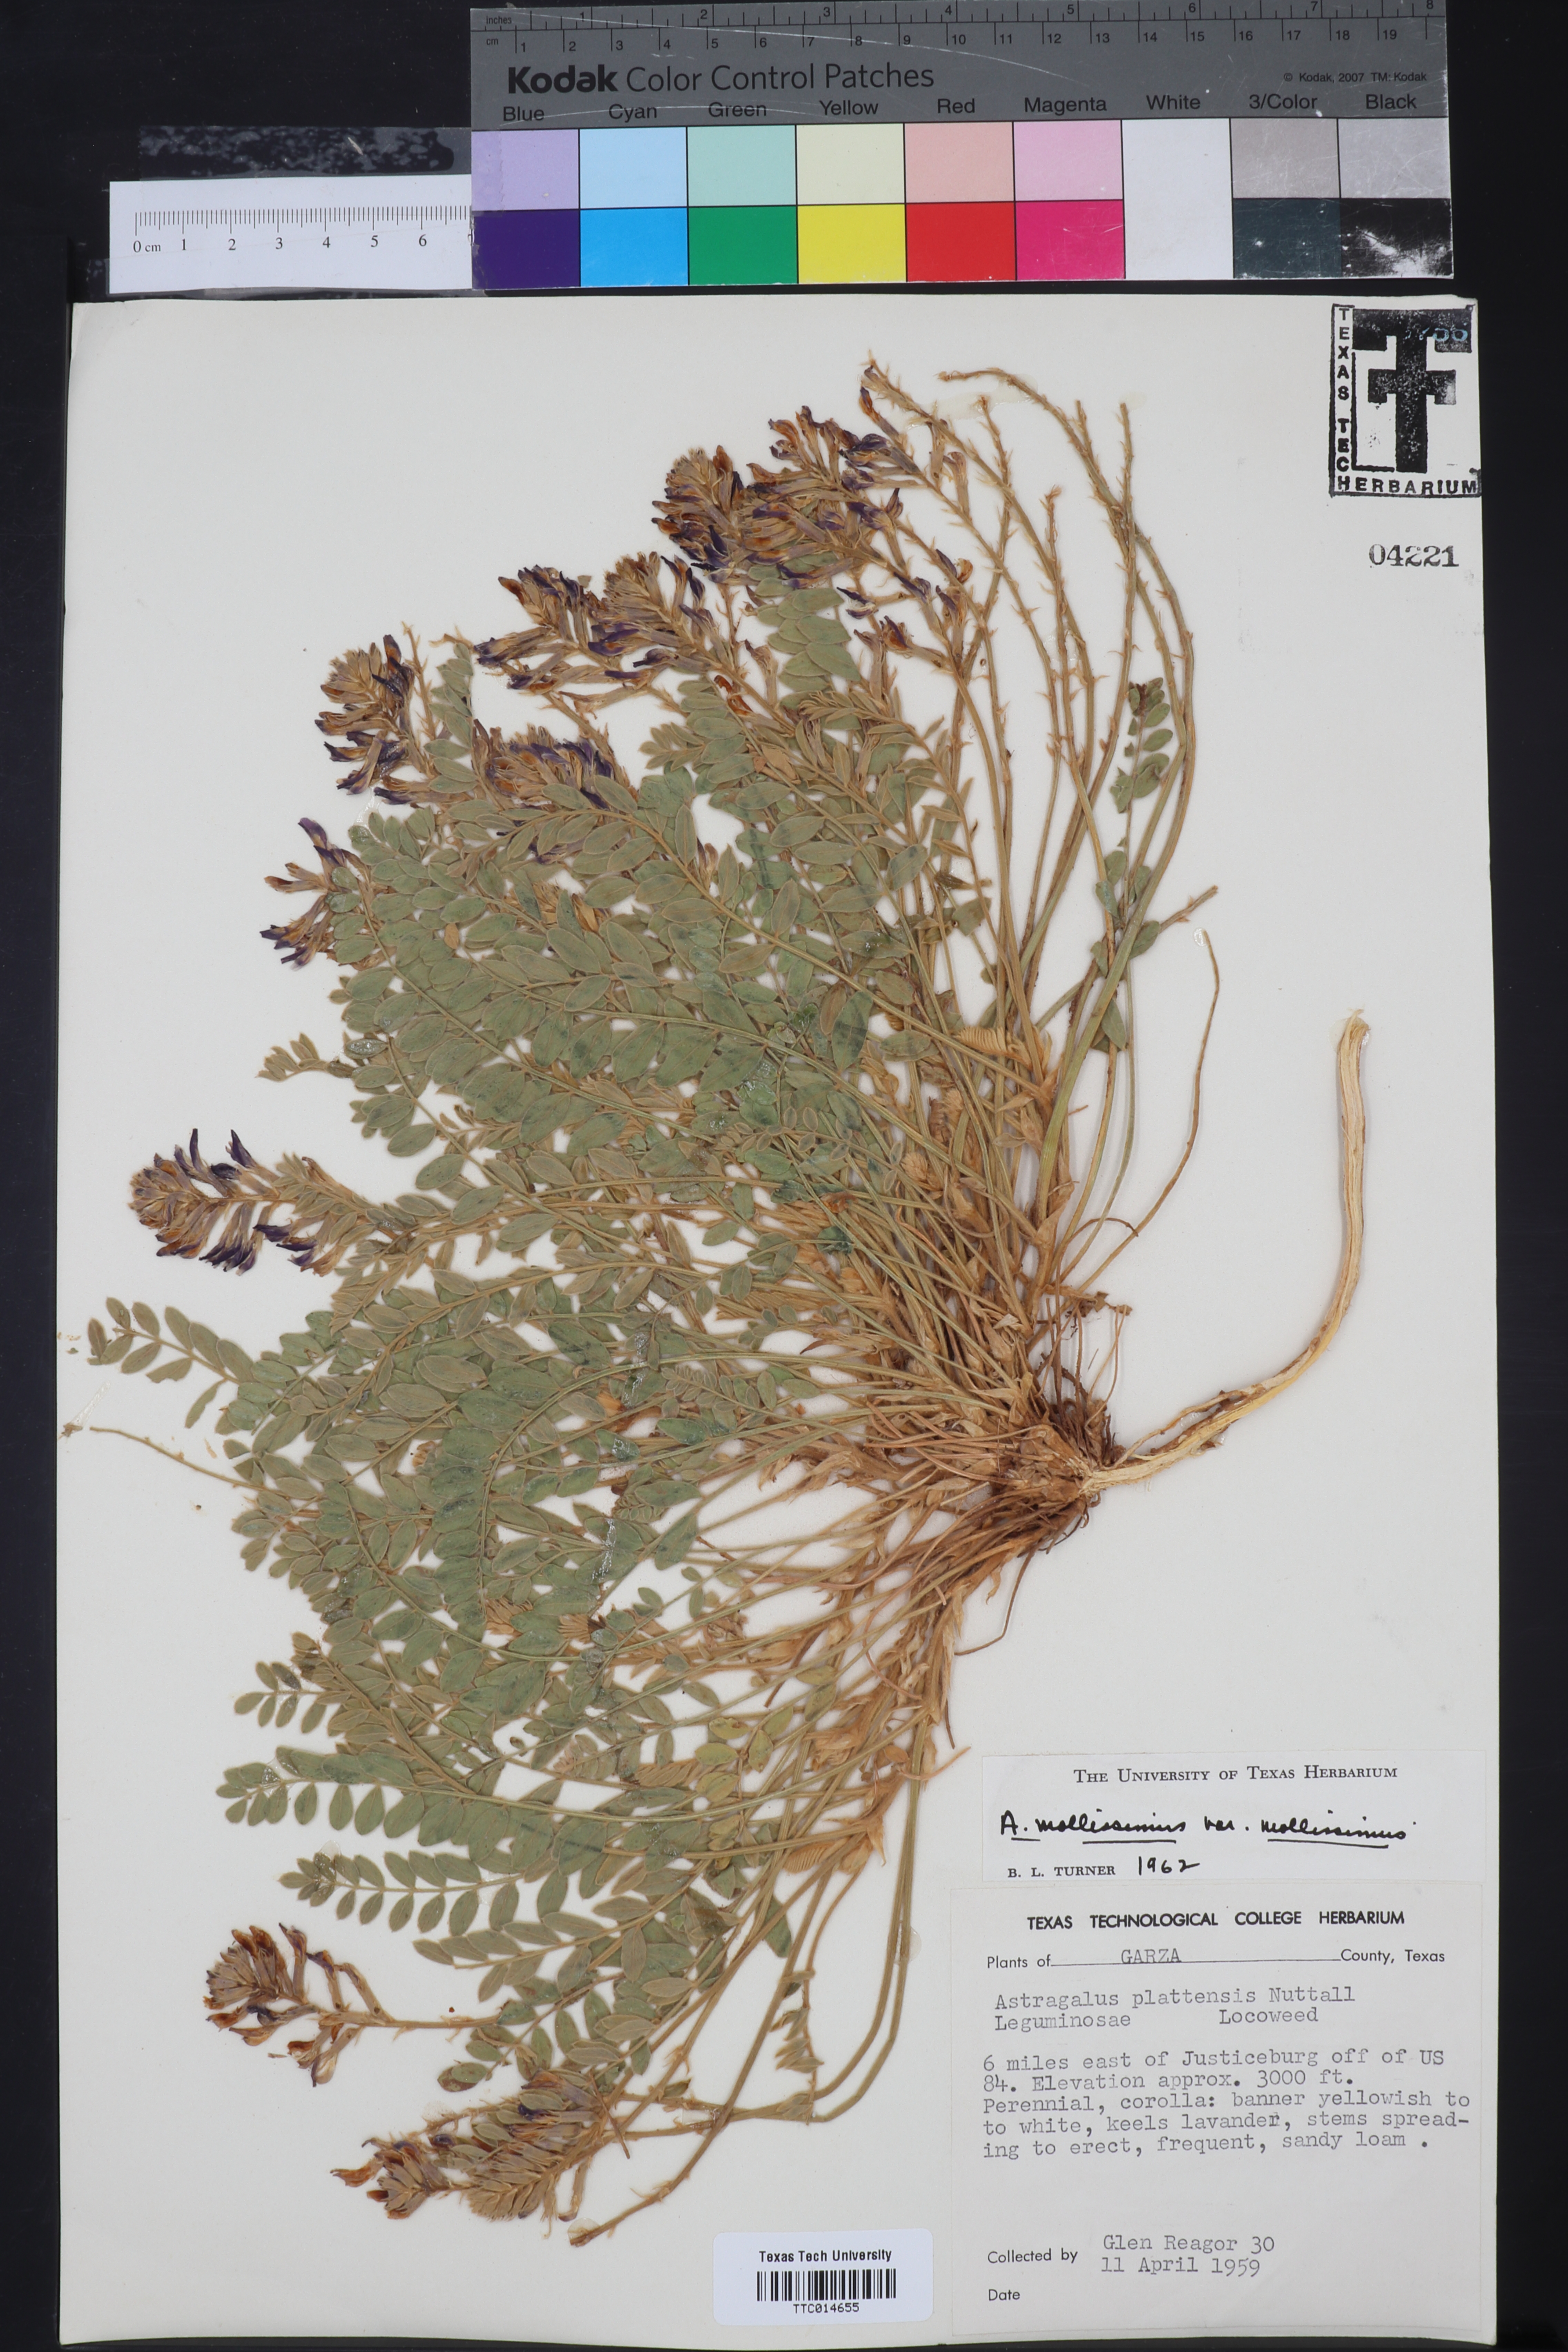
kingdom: Plantae
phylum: Tracheophyta
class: Magnoliopsida
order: Fabales
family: Fabaceae
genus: Astragalus
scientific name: Astragalus mollissimus
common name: Woolly locoweed
